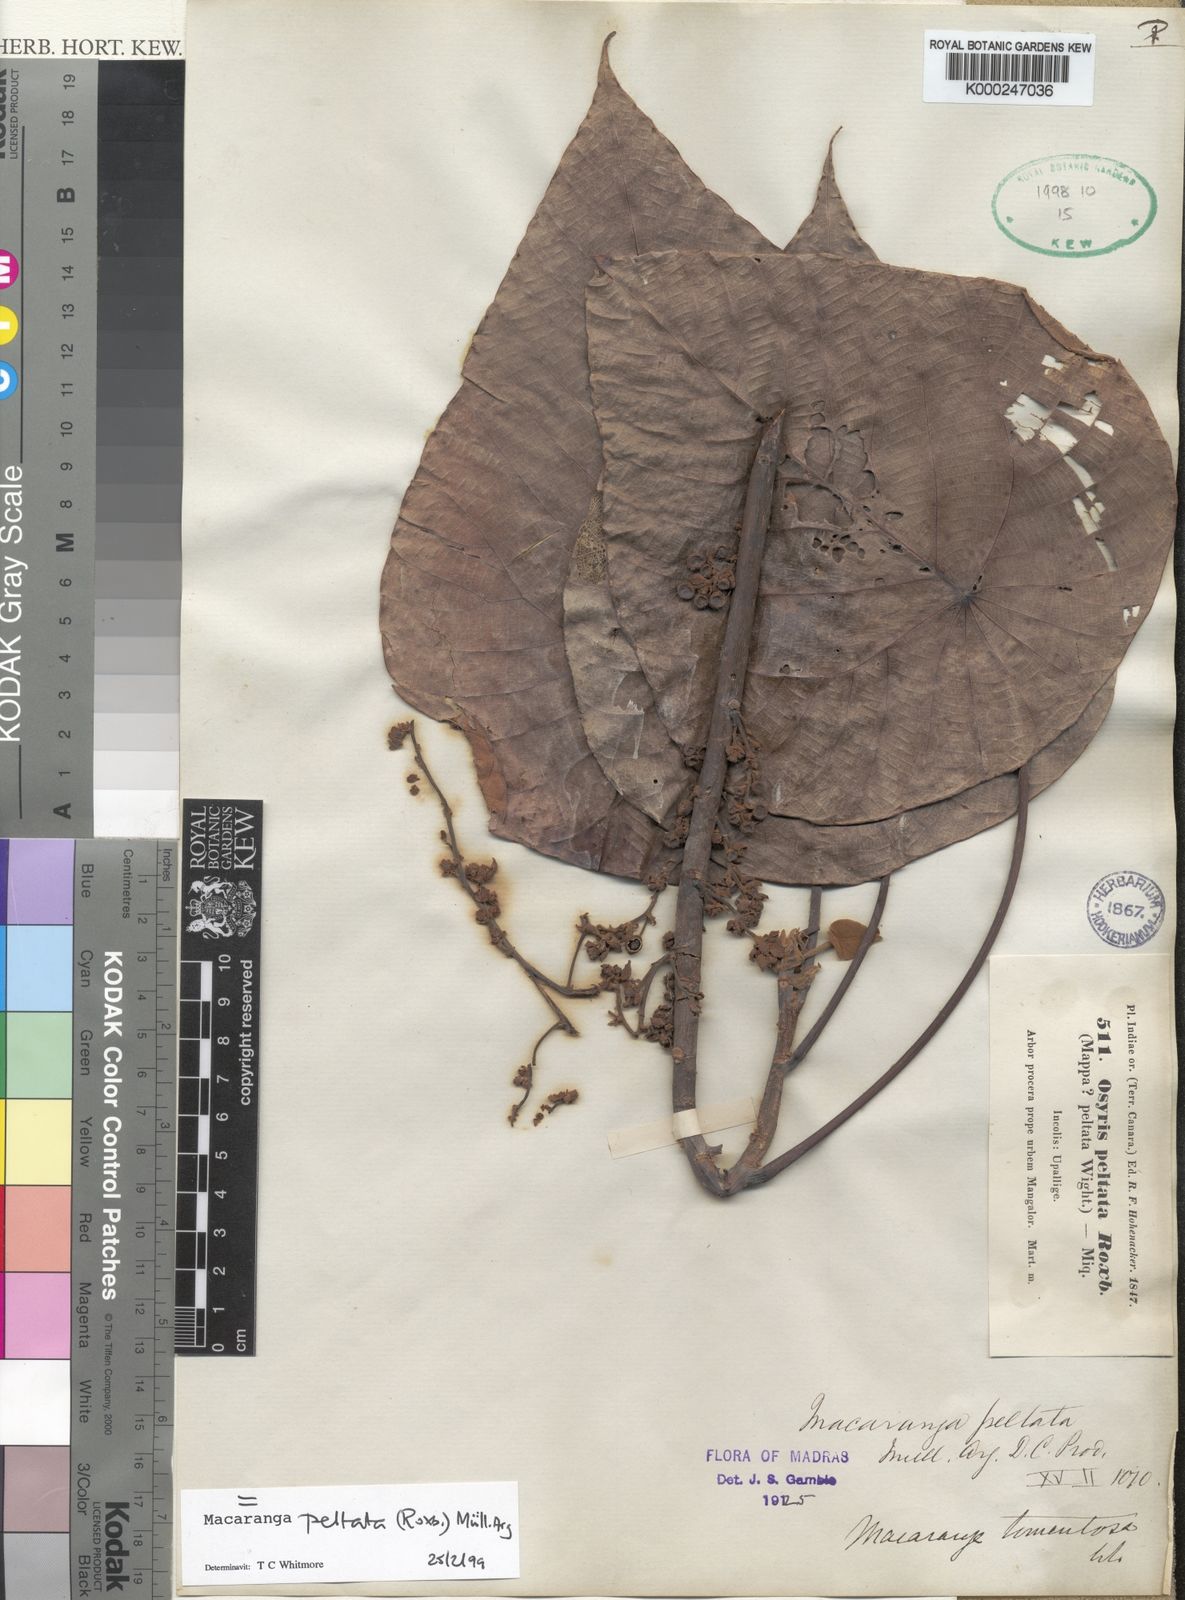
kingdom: Plantae
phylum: Tracheophyta
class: Magnoliopsida
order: Malpighiales
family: Euphorbiaceae
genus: Macaranga
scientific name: Macaranga
